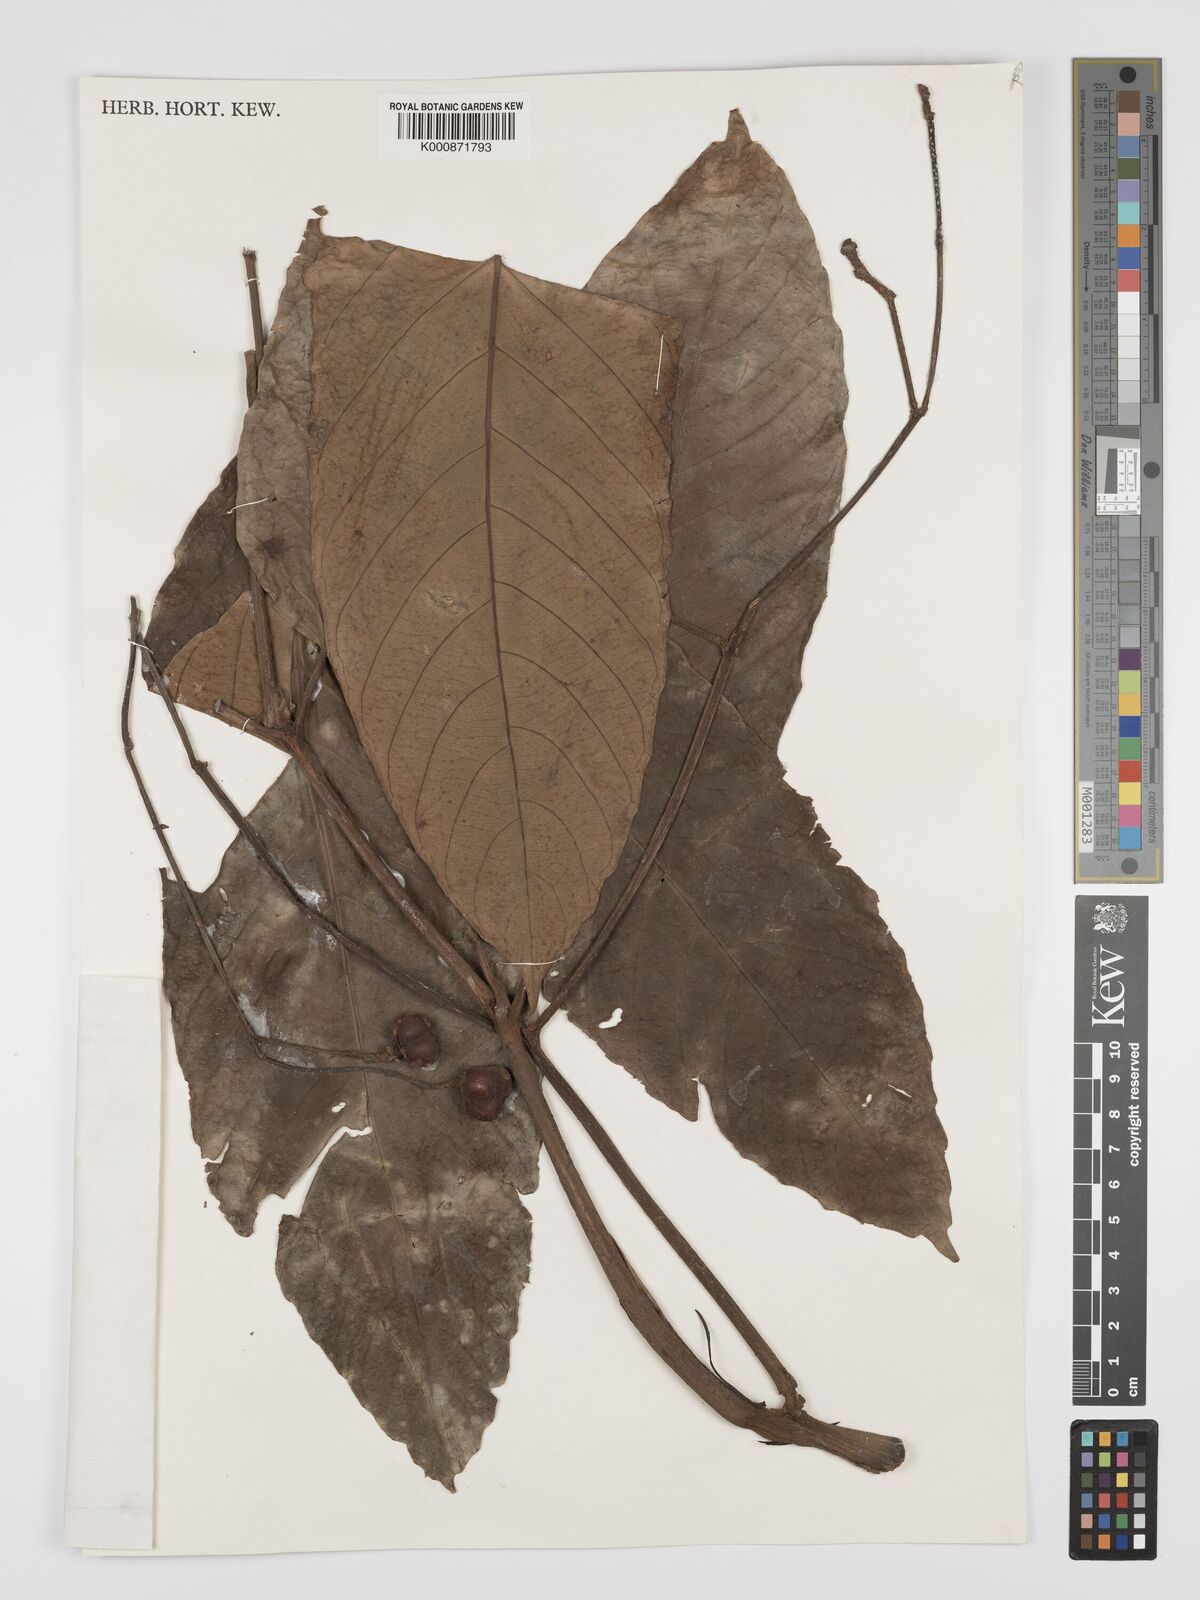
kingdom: Plantae
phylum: Tracheophyta
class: Magnoliopsida
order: Vitales
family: Vitaceae
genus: Leea
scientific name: Leea macropus
